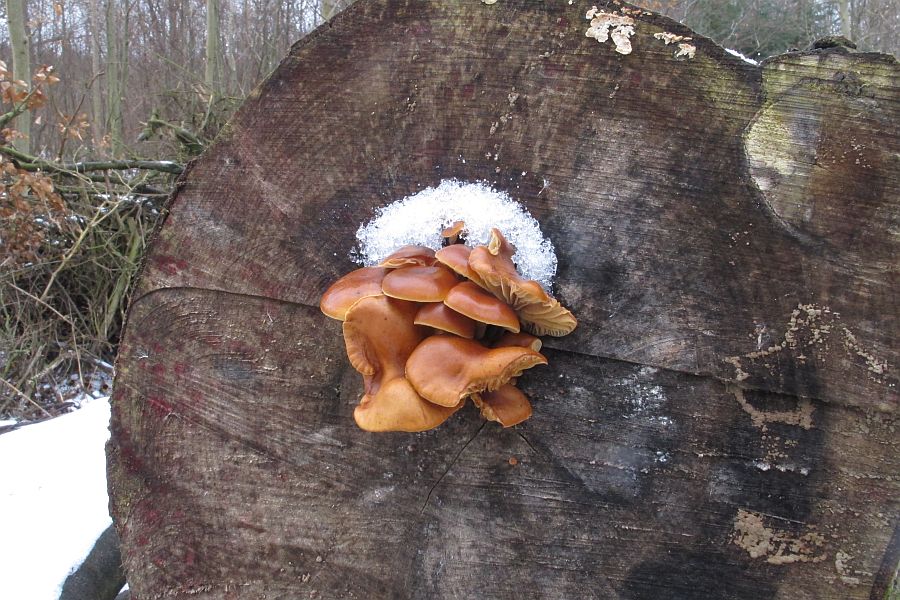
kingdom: Fungi
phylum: Basidiomycota
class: Agaricomycetes
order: Agaricales
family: Physalacriaceae
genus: Flammulina
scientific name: Flammulina velutipes
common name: gul fløjlsfod
